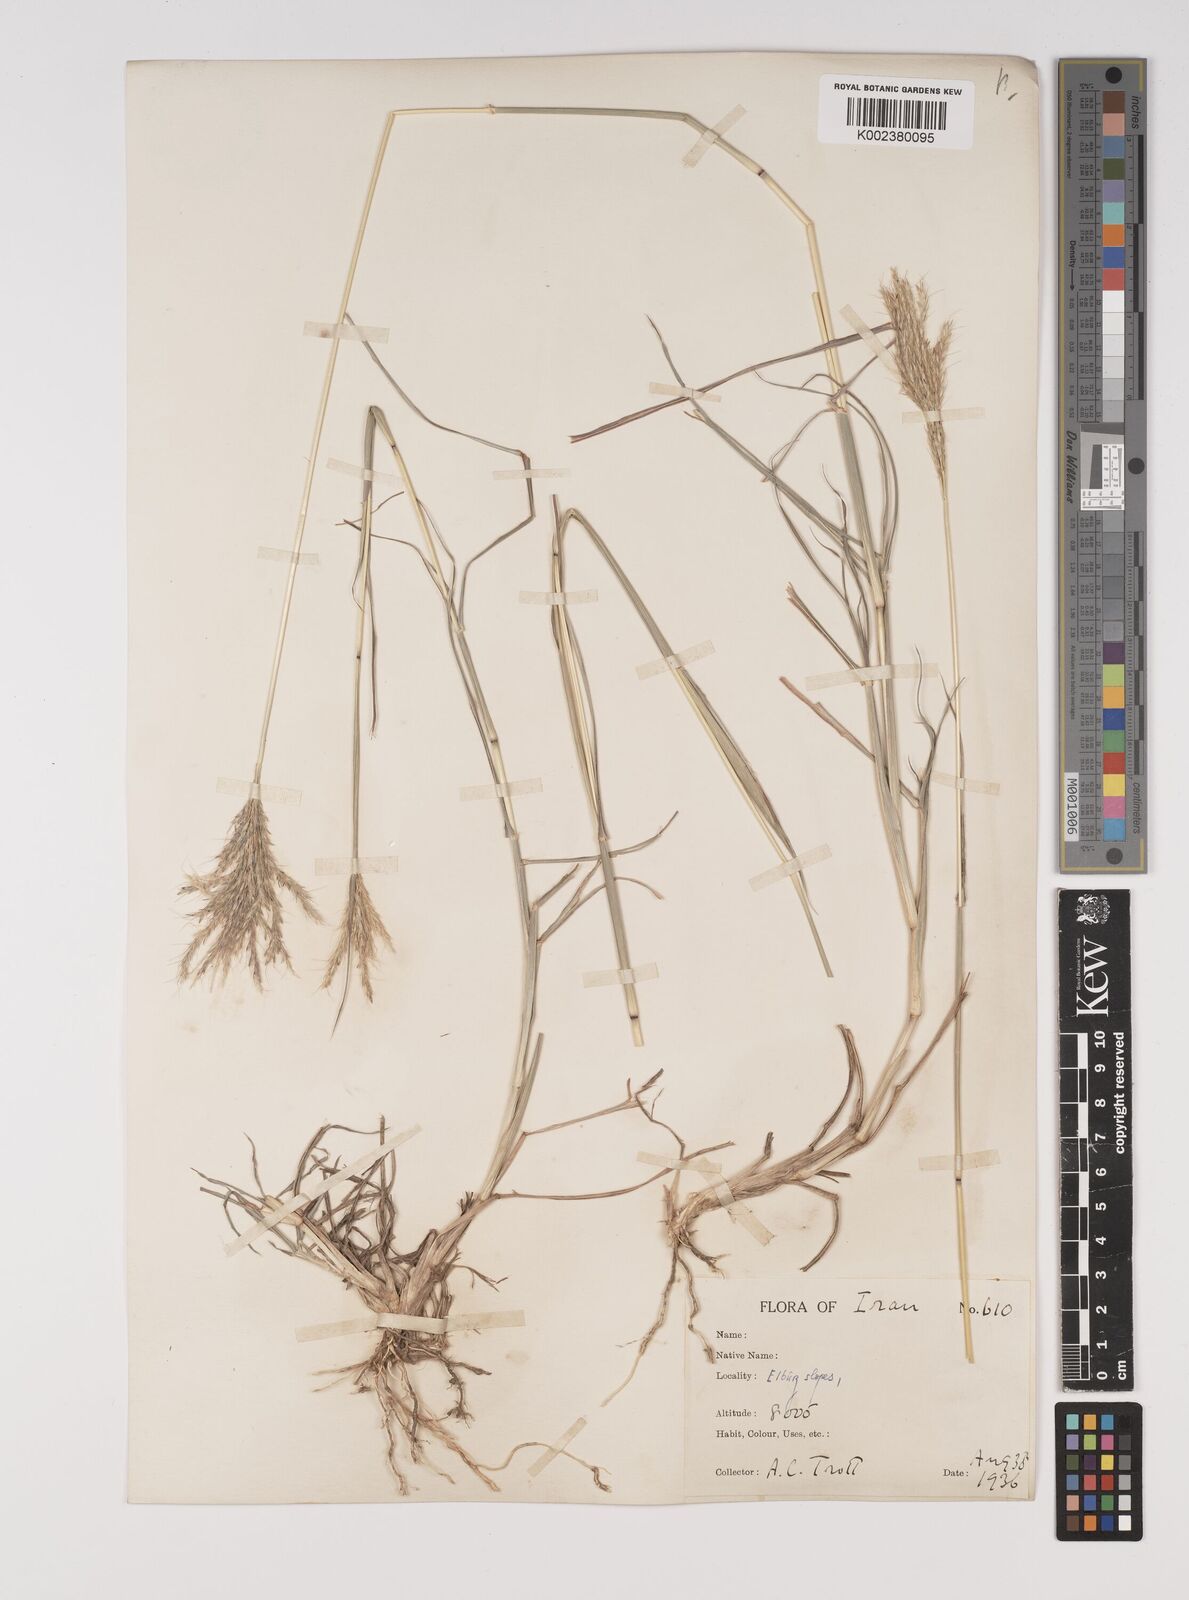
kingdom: Plantae
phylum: Tracheophyta
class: Liliopsida
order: Poales
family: Poaceae
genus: Bothriochloa
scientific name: Bothriochloa ischaemum
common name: Yellow bluestem
